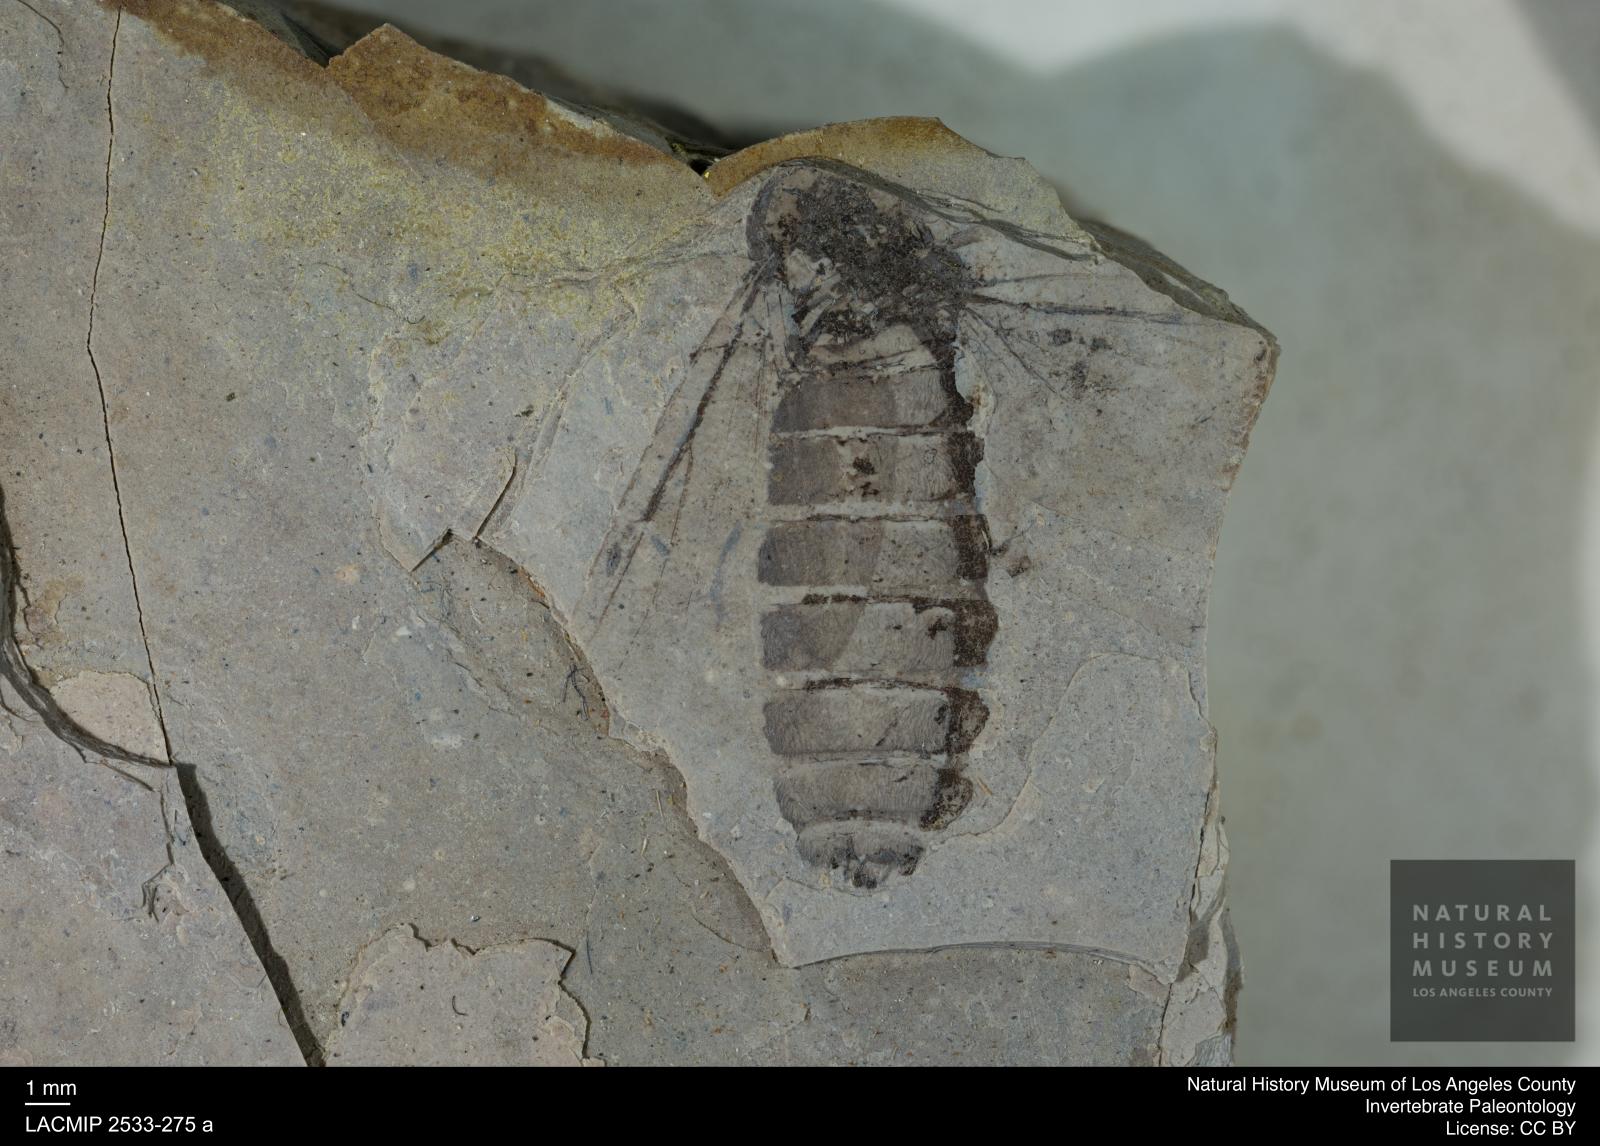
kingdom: Animalia
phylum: Arthropoda
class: Insecta
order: Diptera
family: Bibionidae
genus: Plecia
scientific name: Plecia collossea
